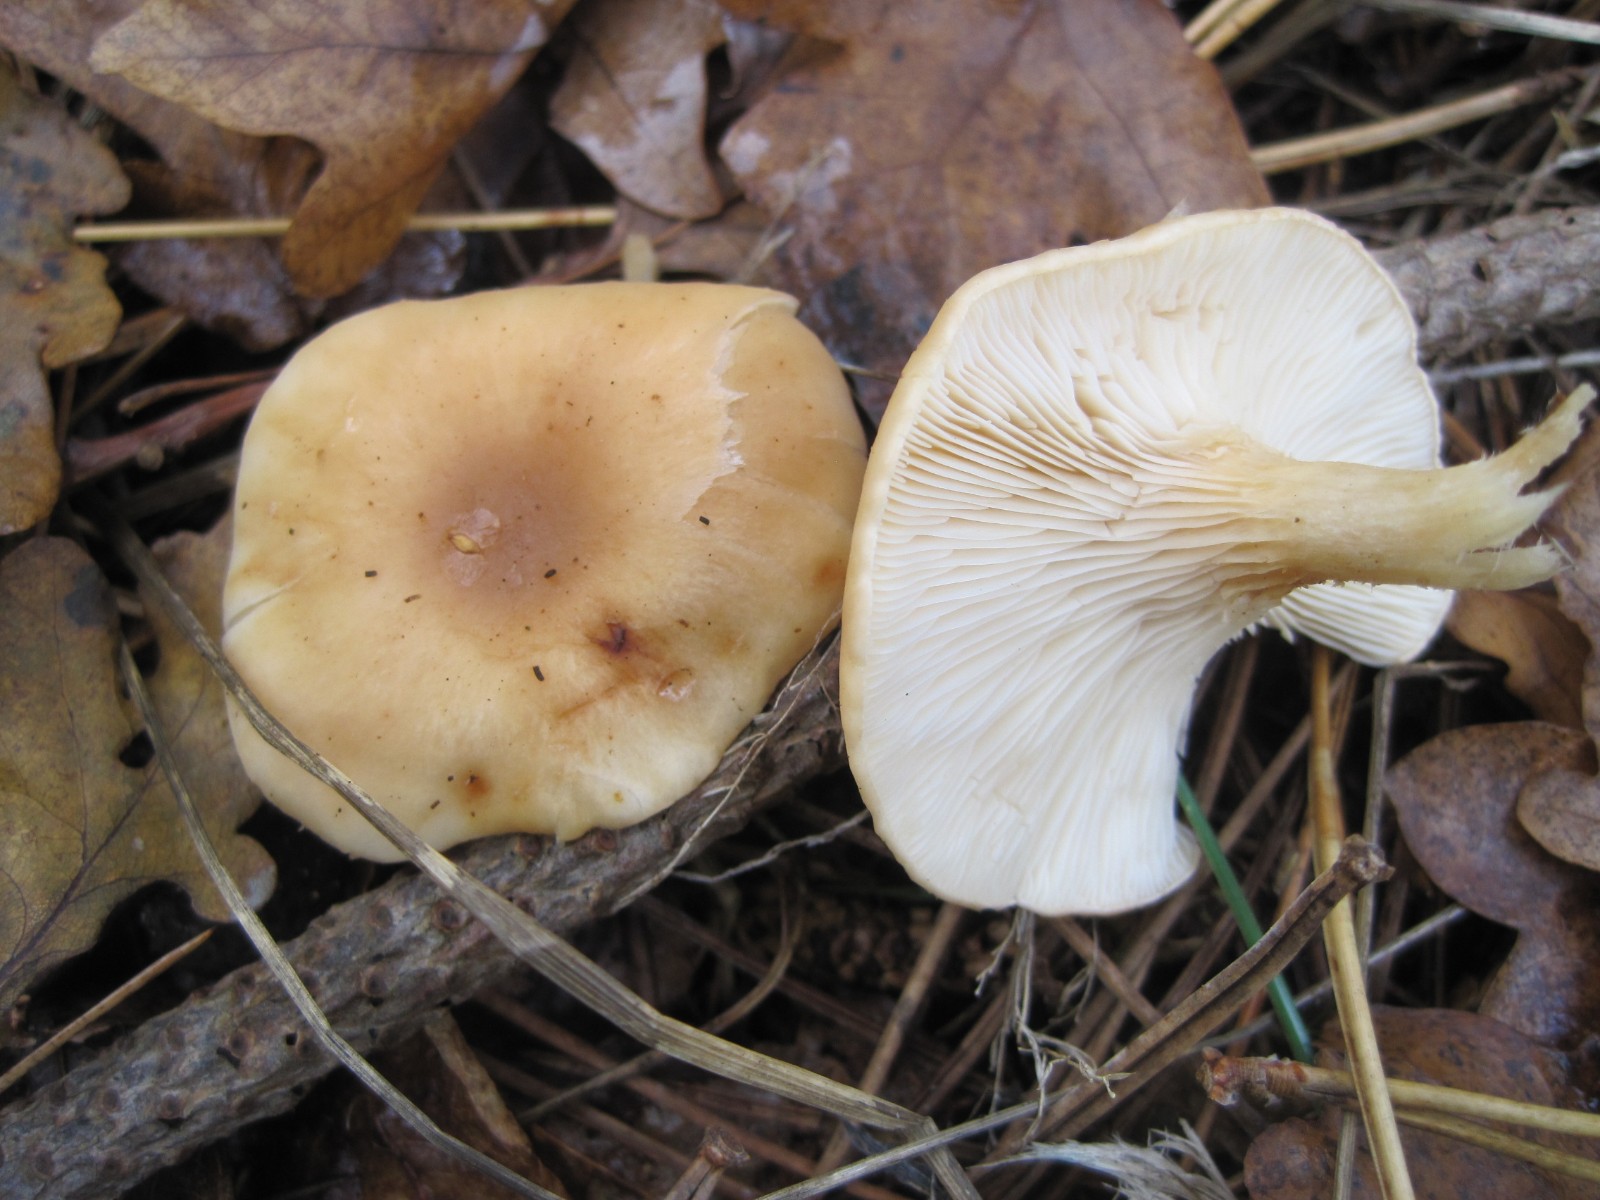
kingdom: Fungi
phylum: Basidiomycota
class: Agaricomycetes
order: Agaricales
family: Tricholomataceae
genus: Paralepista
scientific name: Paralepista flaccida
